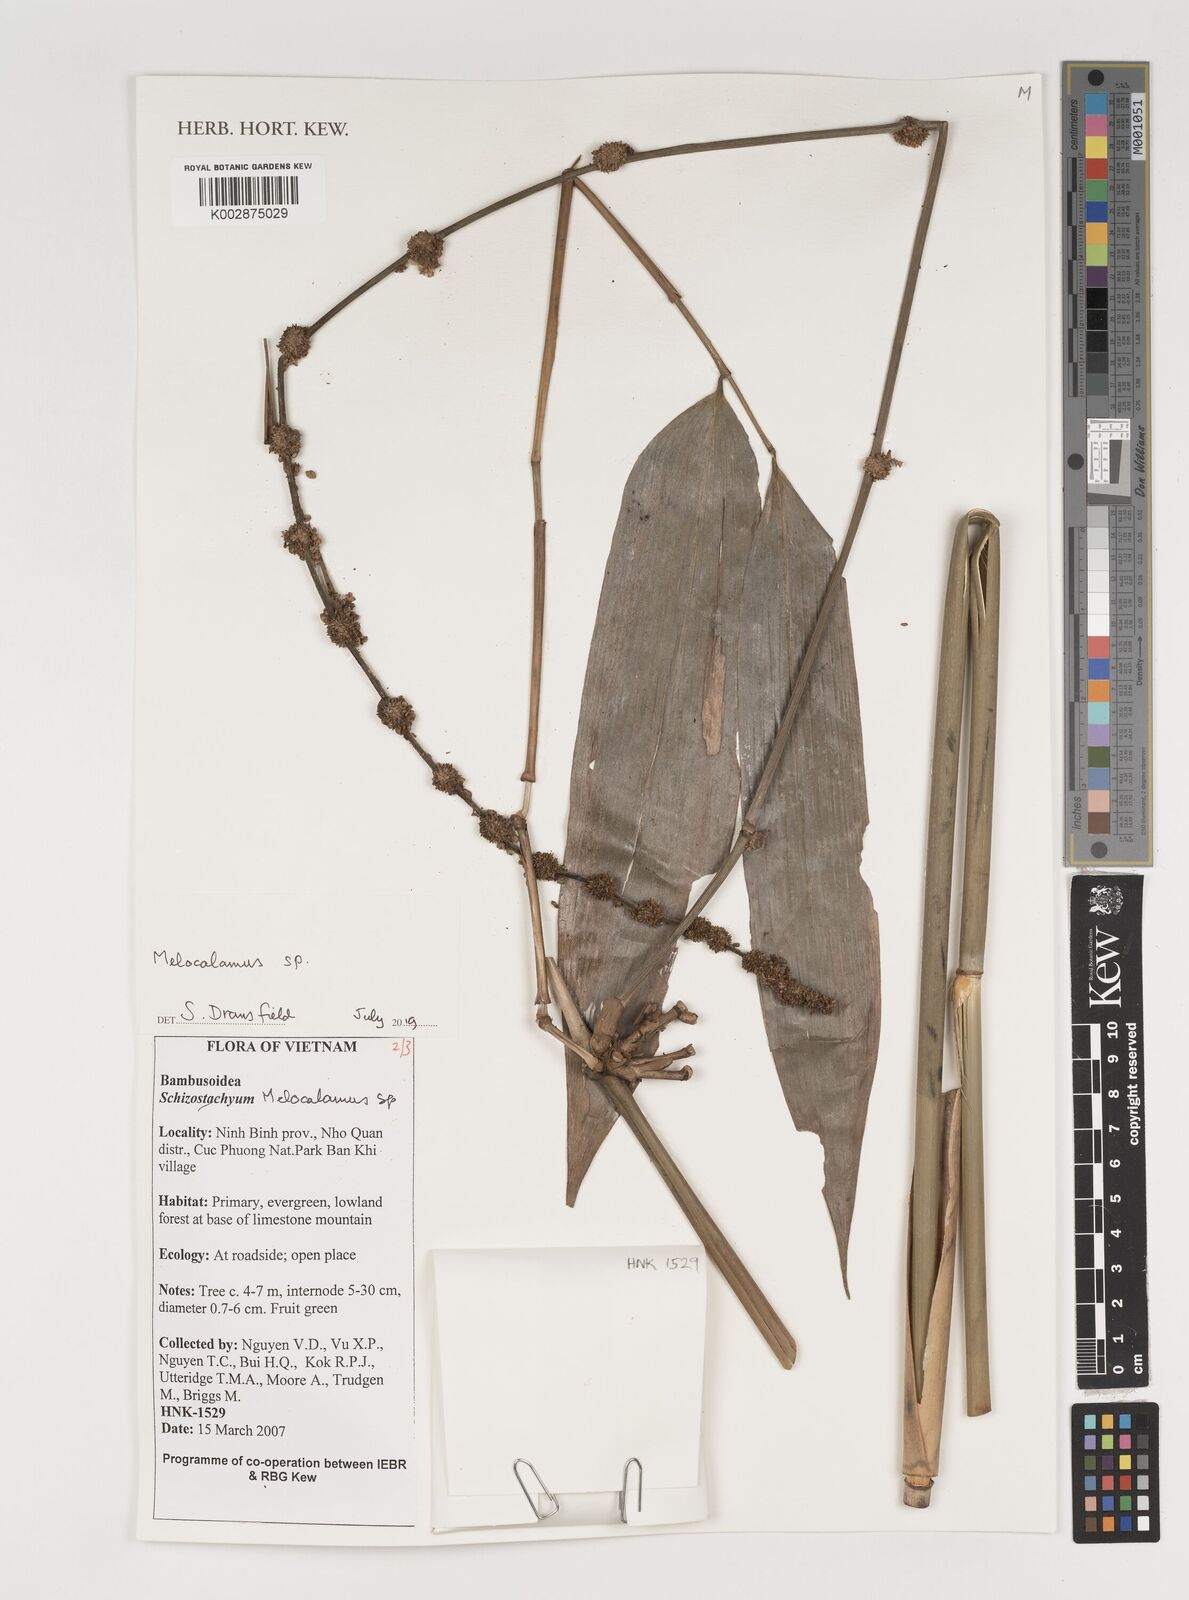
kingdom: Plantae
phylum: Tracheophyta
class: Liliopsida
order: Poales
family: Poaceae
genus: Melocalamus
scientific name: Melocalamus
